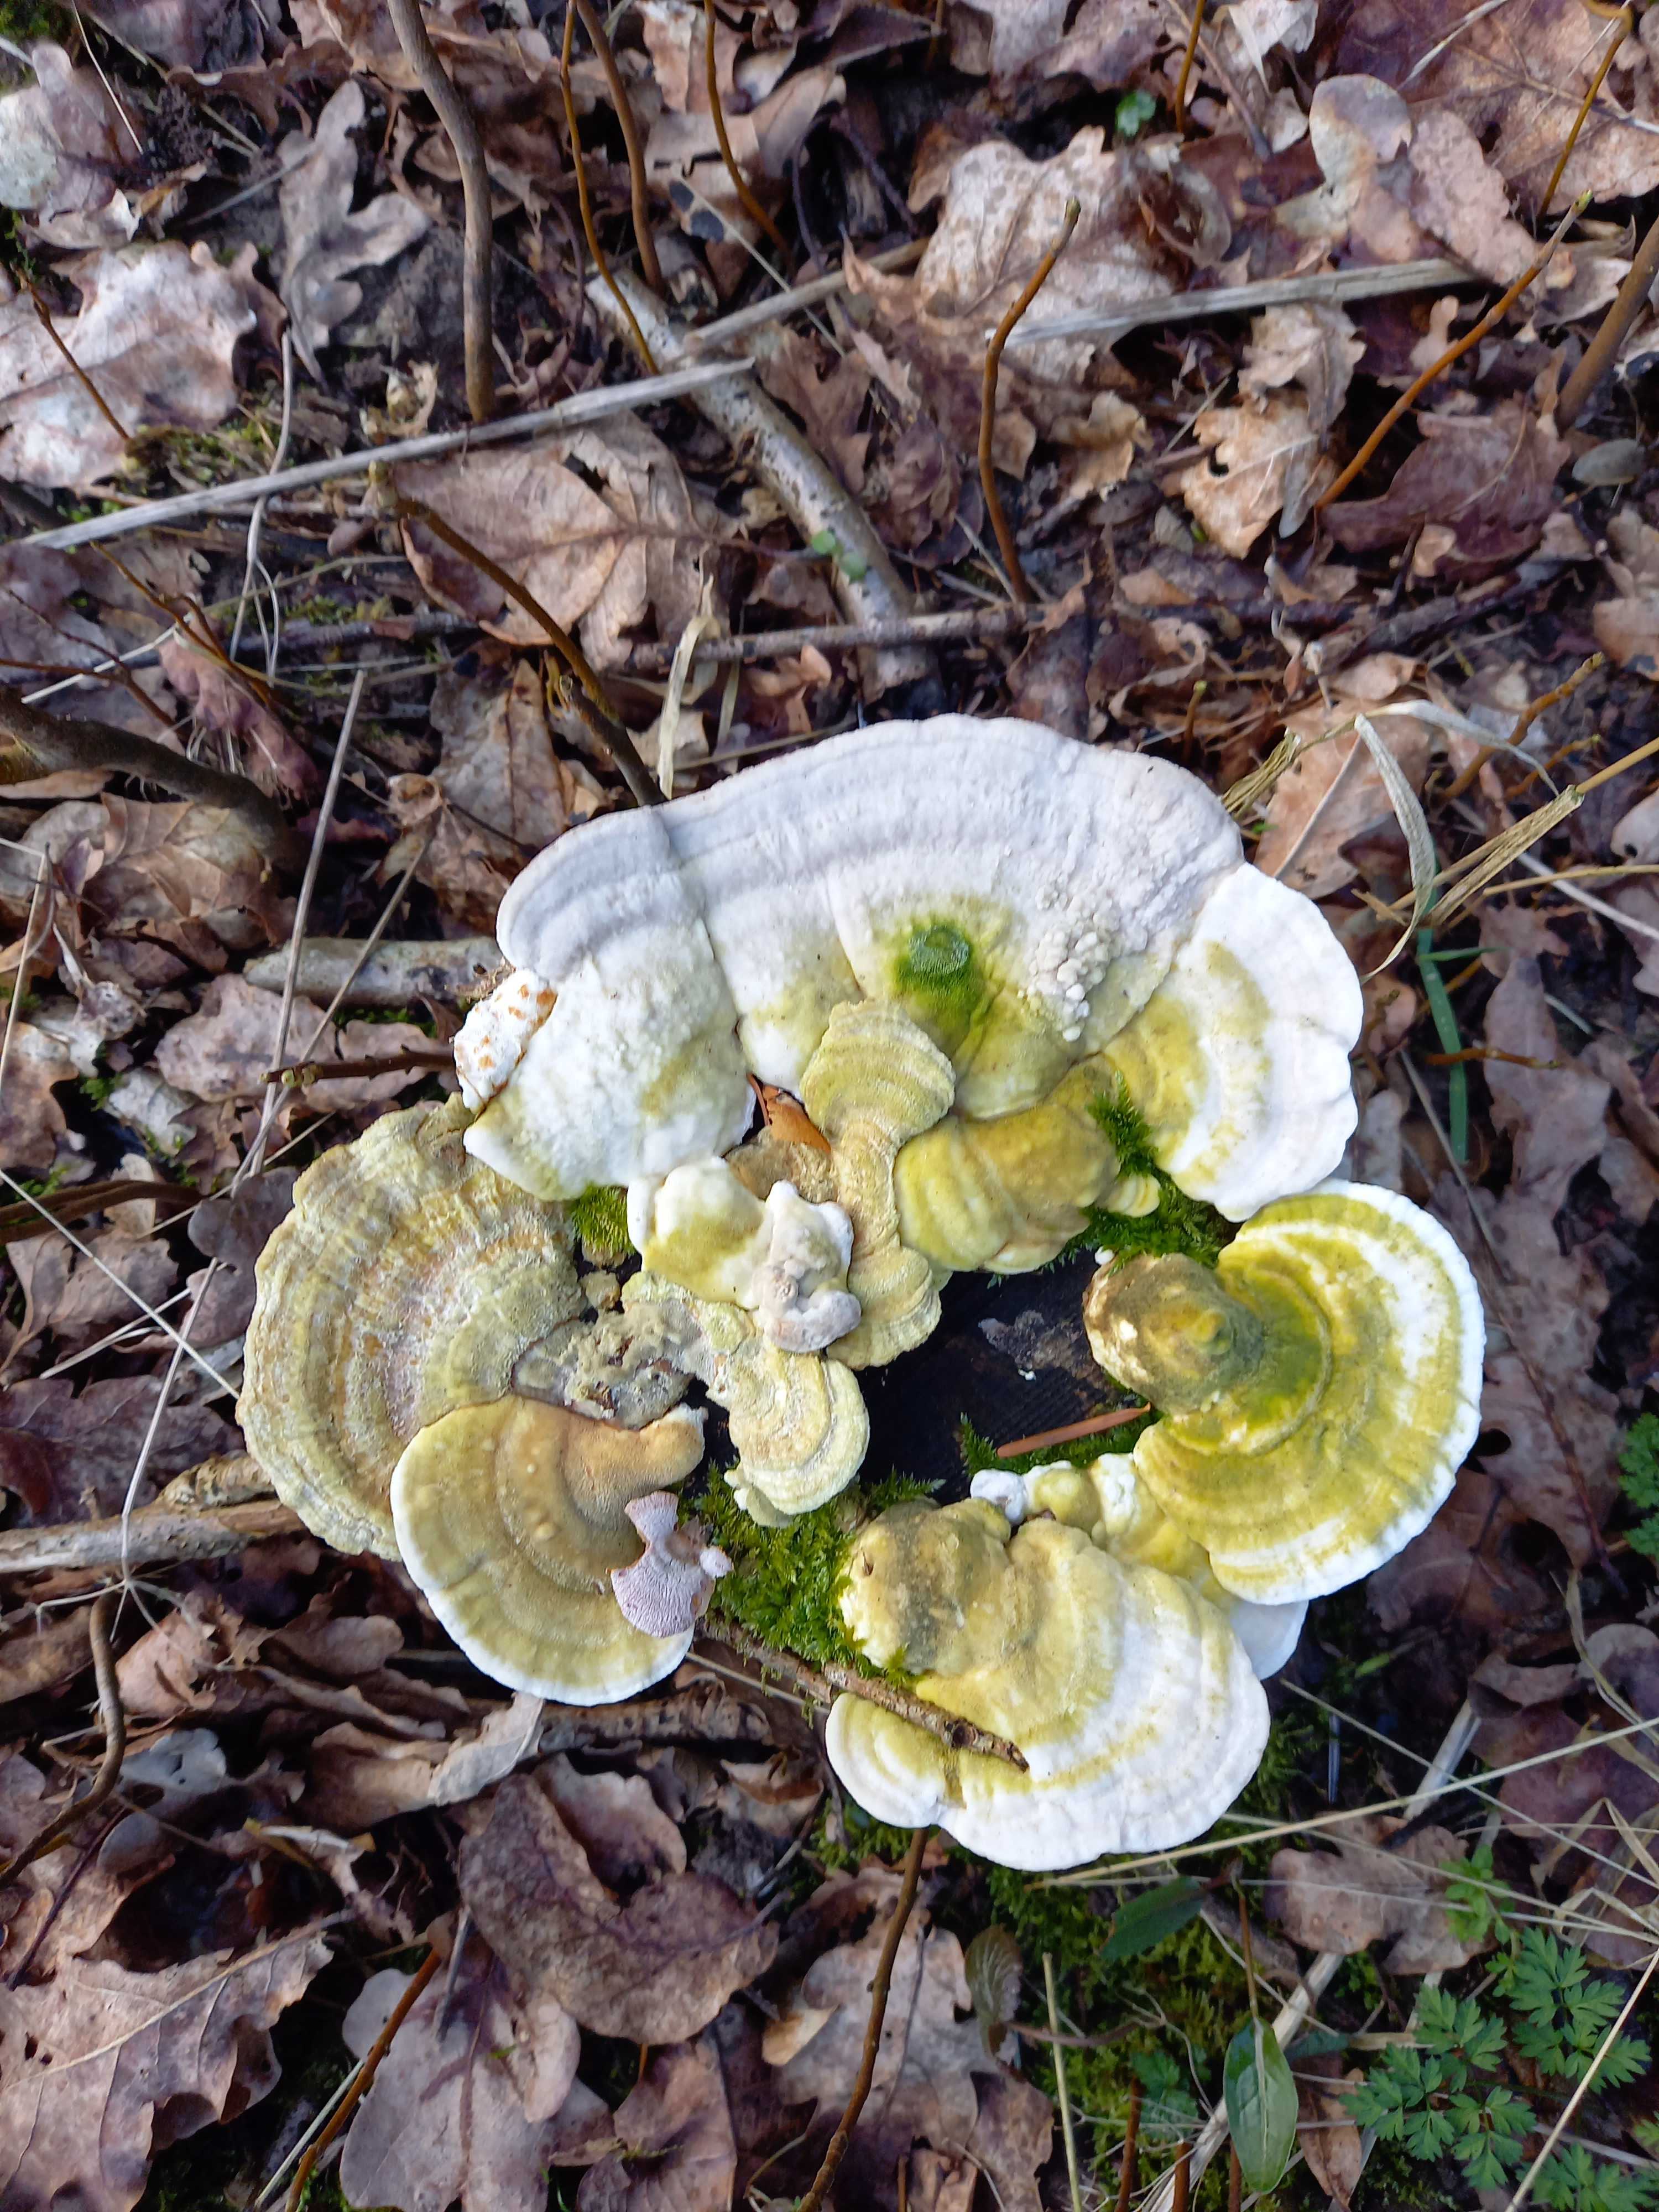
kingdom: Fungi
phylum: Basidiomycota
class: Agaricomycetes
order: Polyporales
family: Polyporaceae
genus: Trametes
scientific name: Trametes gibbosa
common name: puklet læderporesvamp
